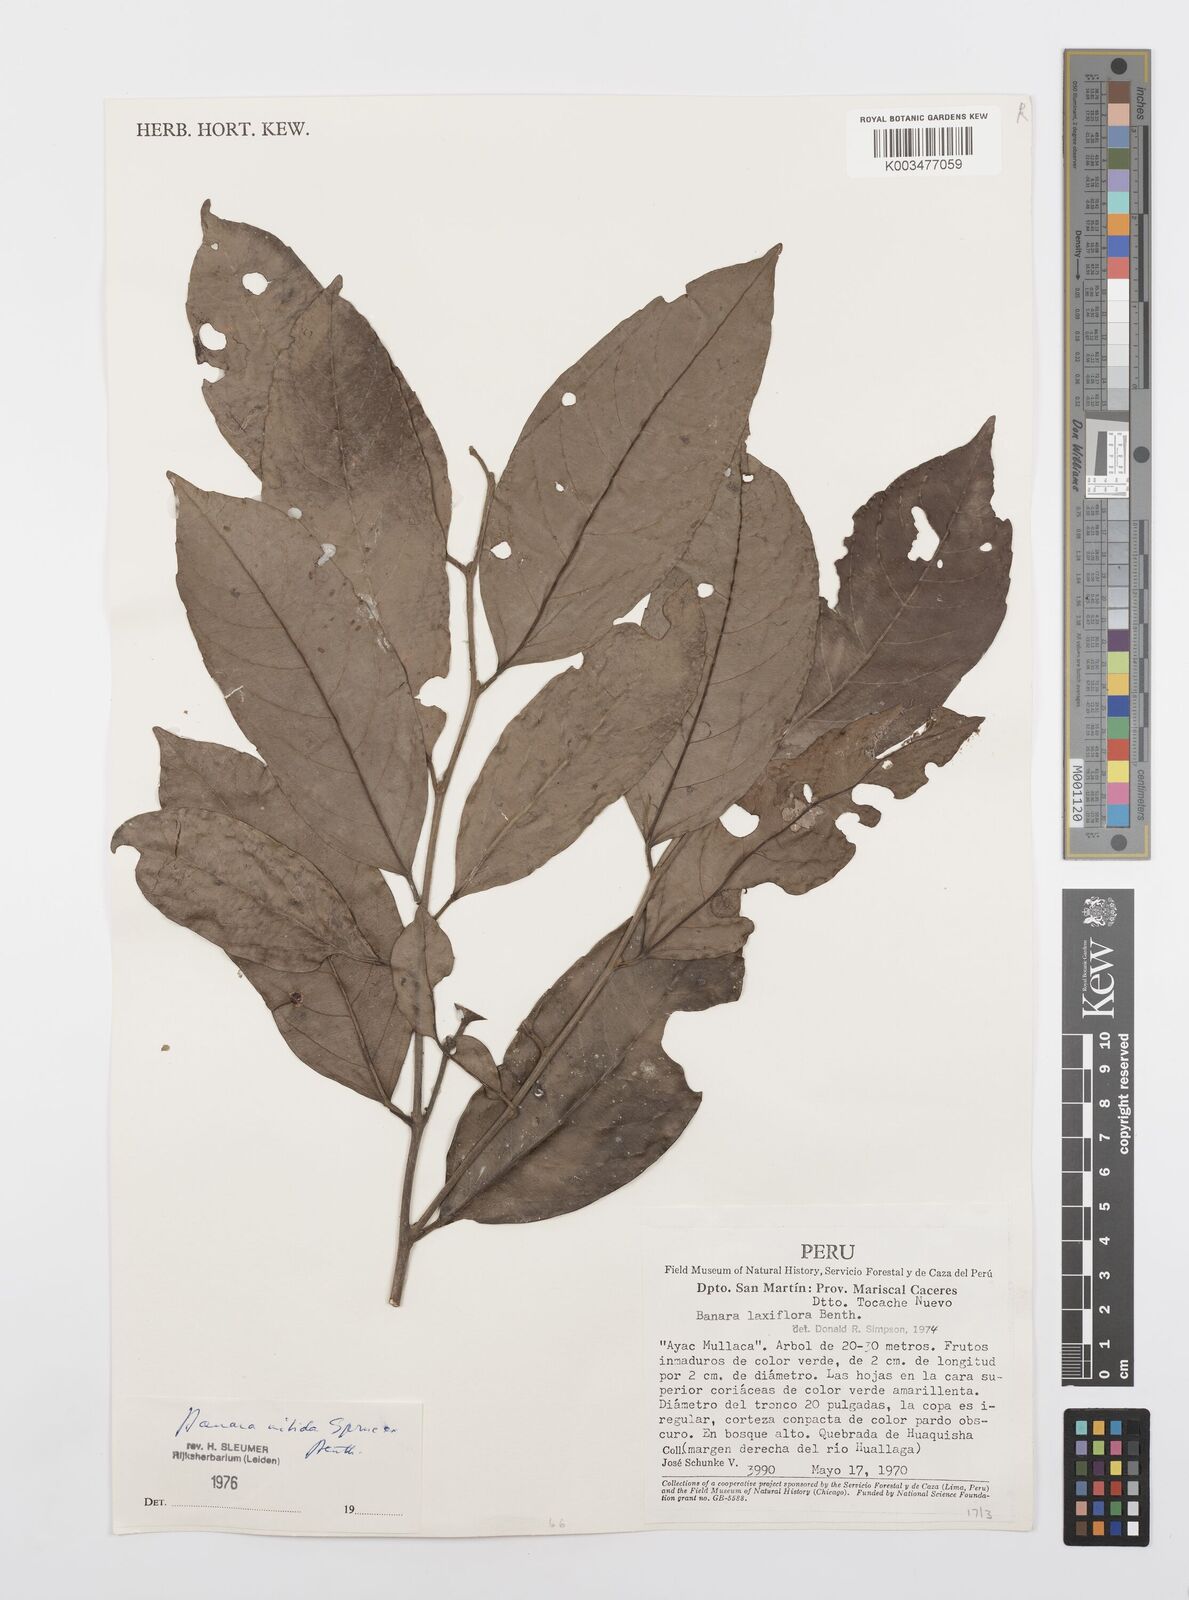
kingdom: Plantae
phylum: Tracheophyta
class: Magnoliopsida
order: Malpighiales
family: Salicaceae
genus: Banara
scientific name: Banara nitida
